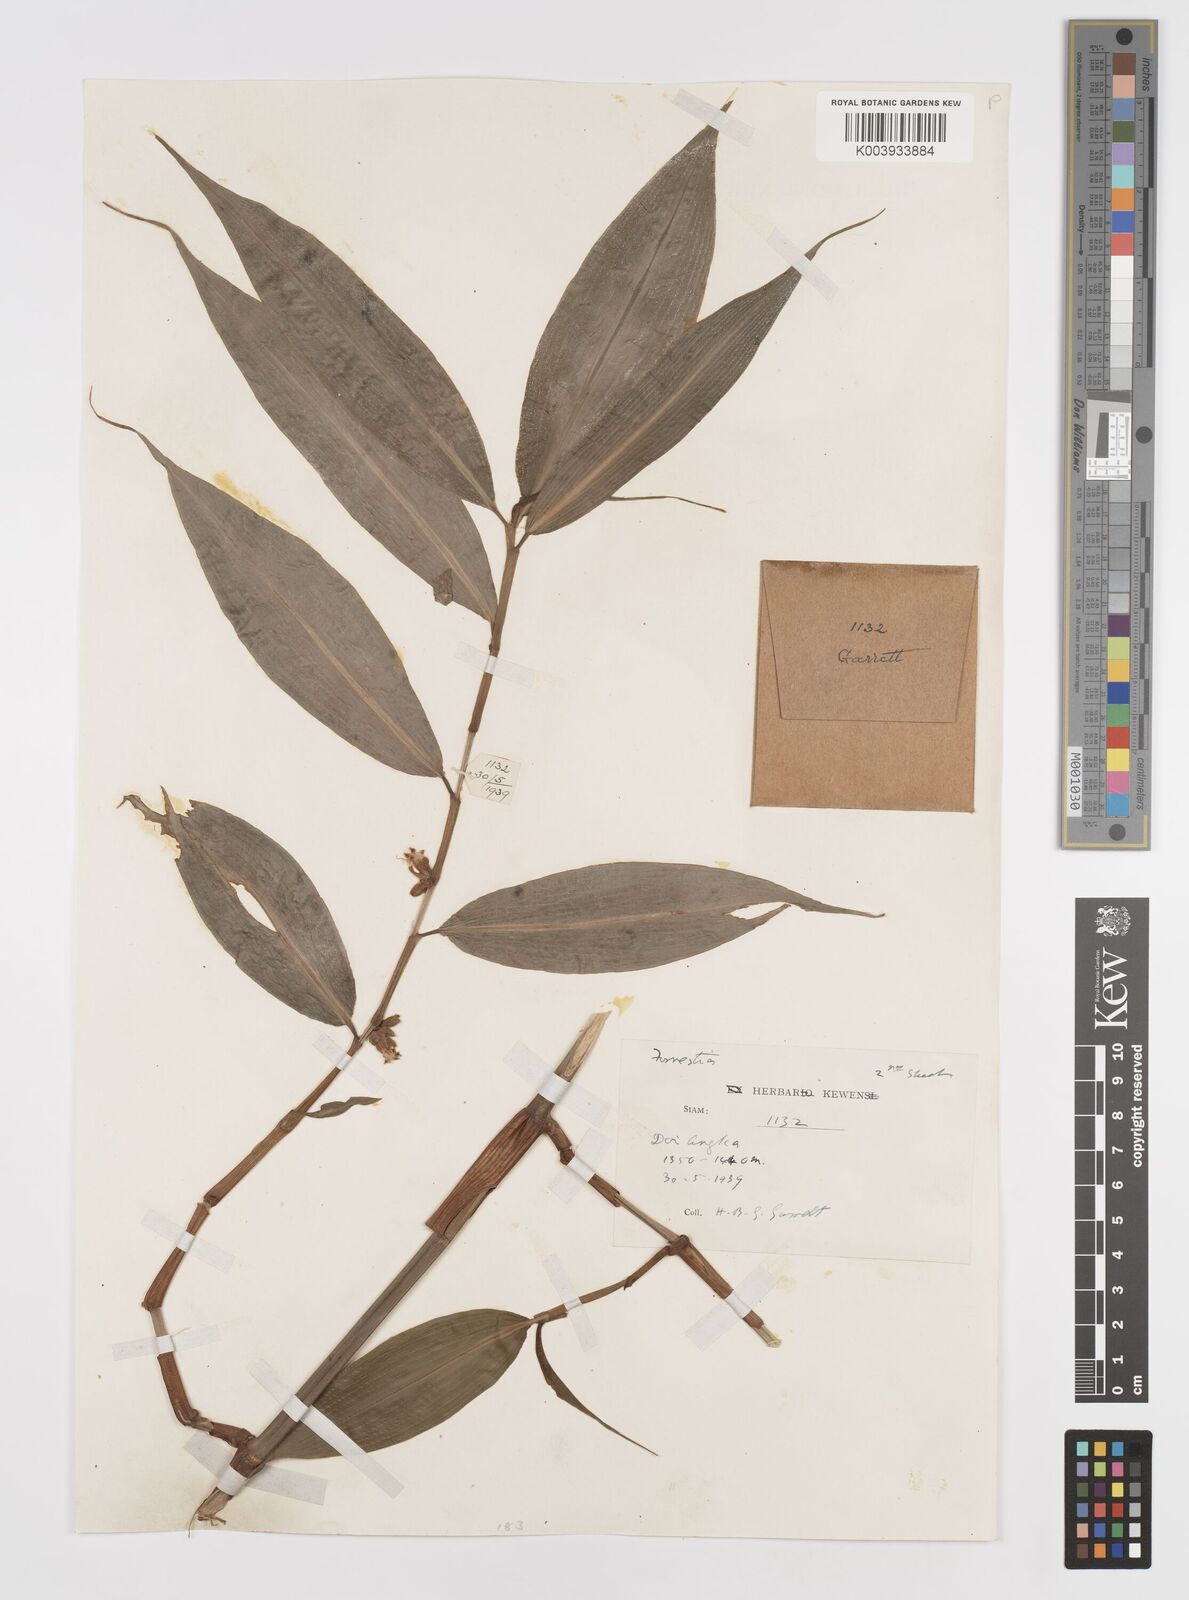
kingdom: Plantae
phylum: Tracheophyta
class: Liliopsida
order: Commelinales
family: Commelinaceae
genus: Amischotolype
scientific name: Amischotolype
